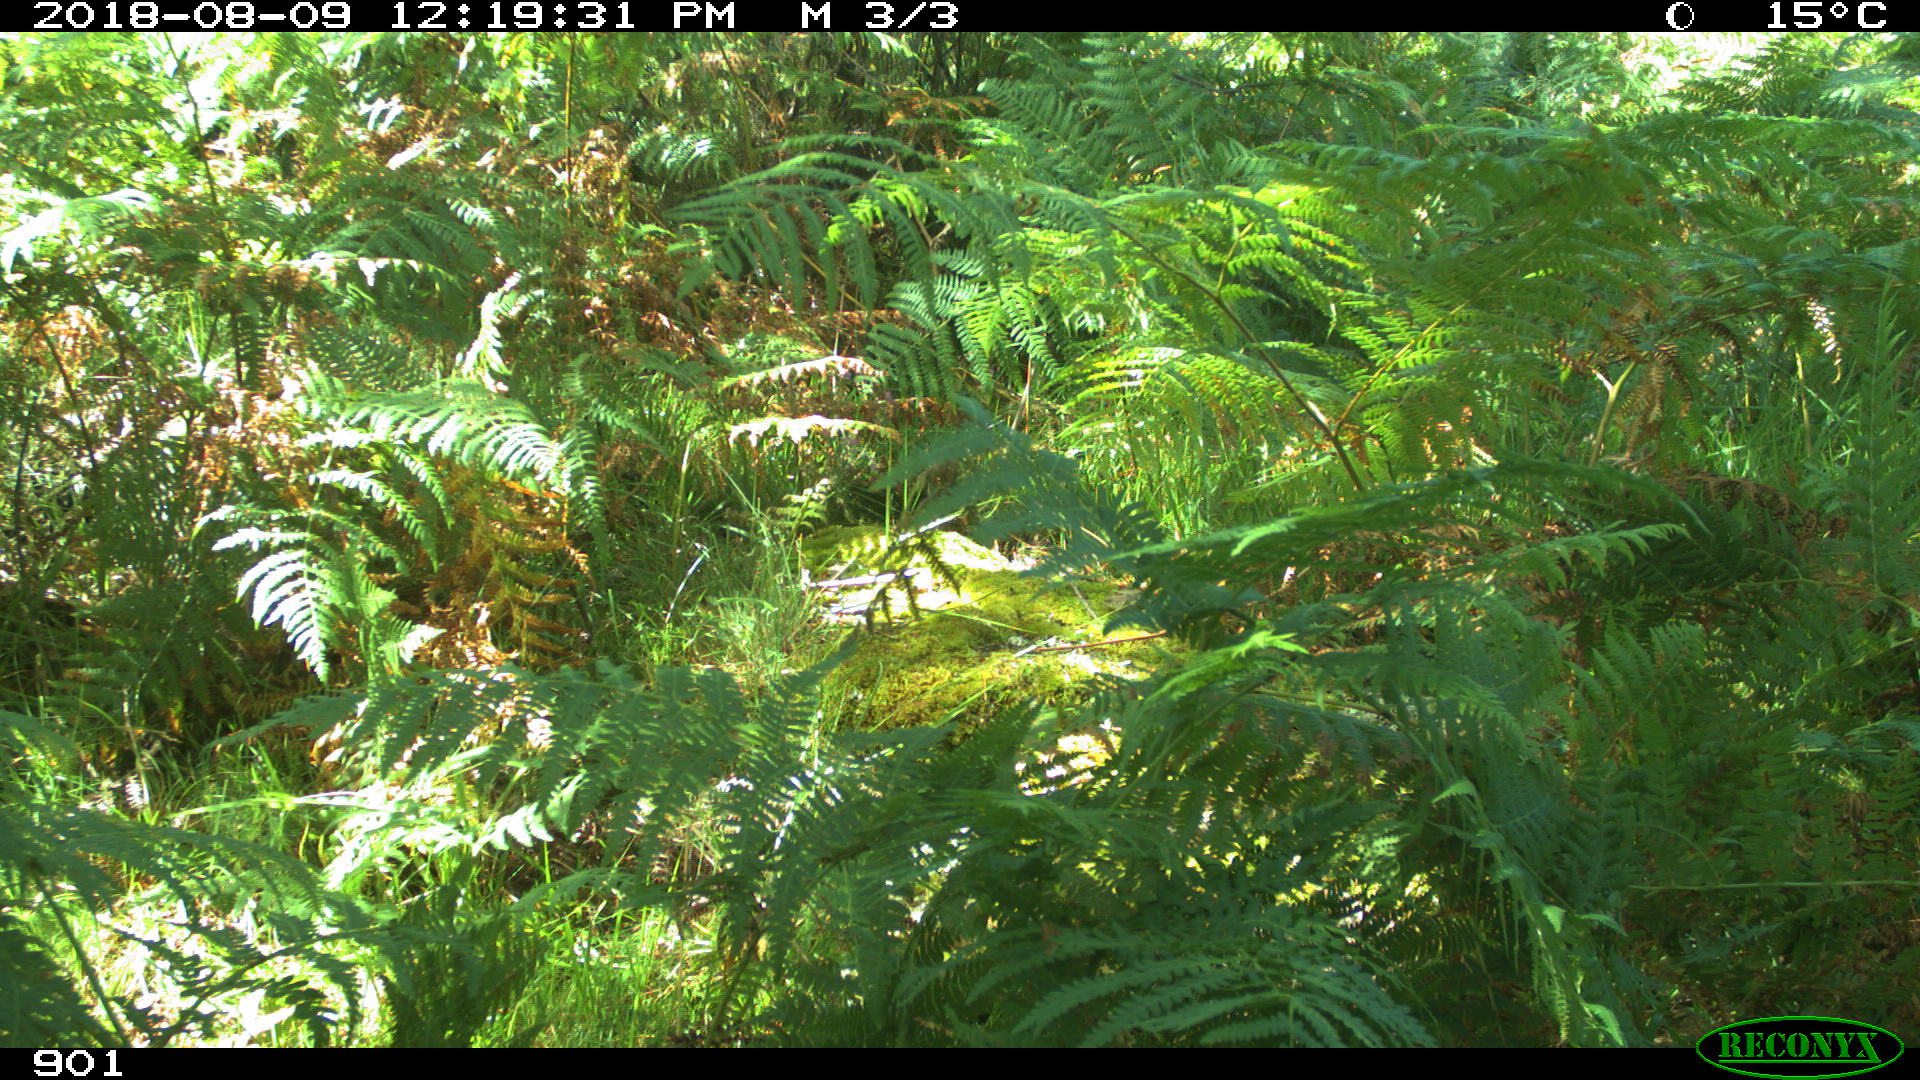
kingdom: Animalia
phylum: Chordata
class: Mammalia
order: Artiodactyla
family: Bovidae
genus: Bos
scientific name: Bos taurus
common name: Domesticated cattle
